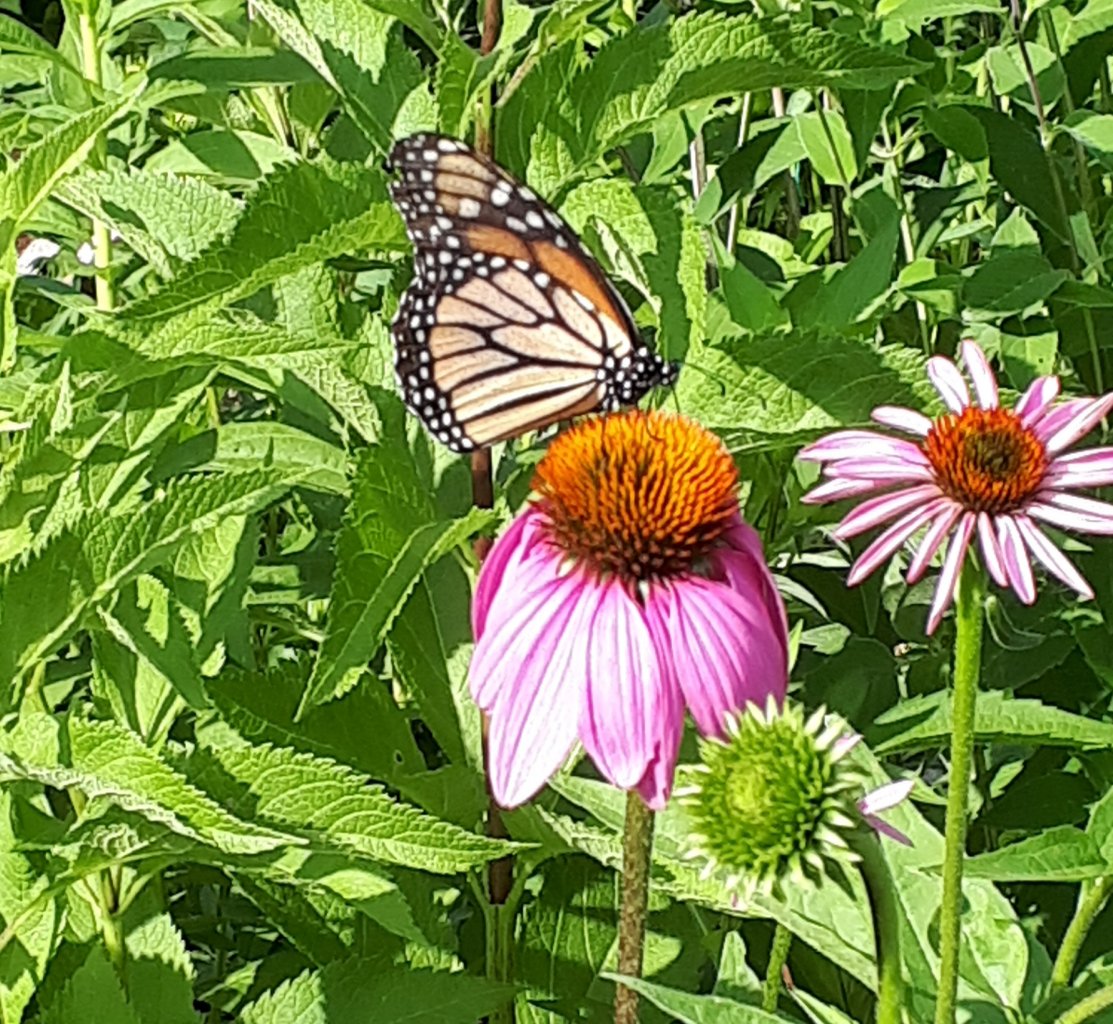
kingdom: Animalia
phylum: Arthropoda
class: Insecta
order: Lepidoptera
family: Nymphalidae
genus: Danaus
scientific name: Danaus plexippus
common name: Monarch
